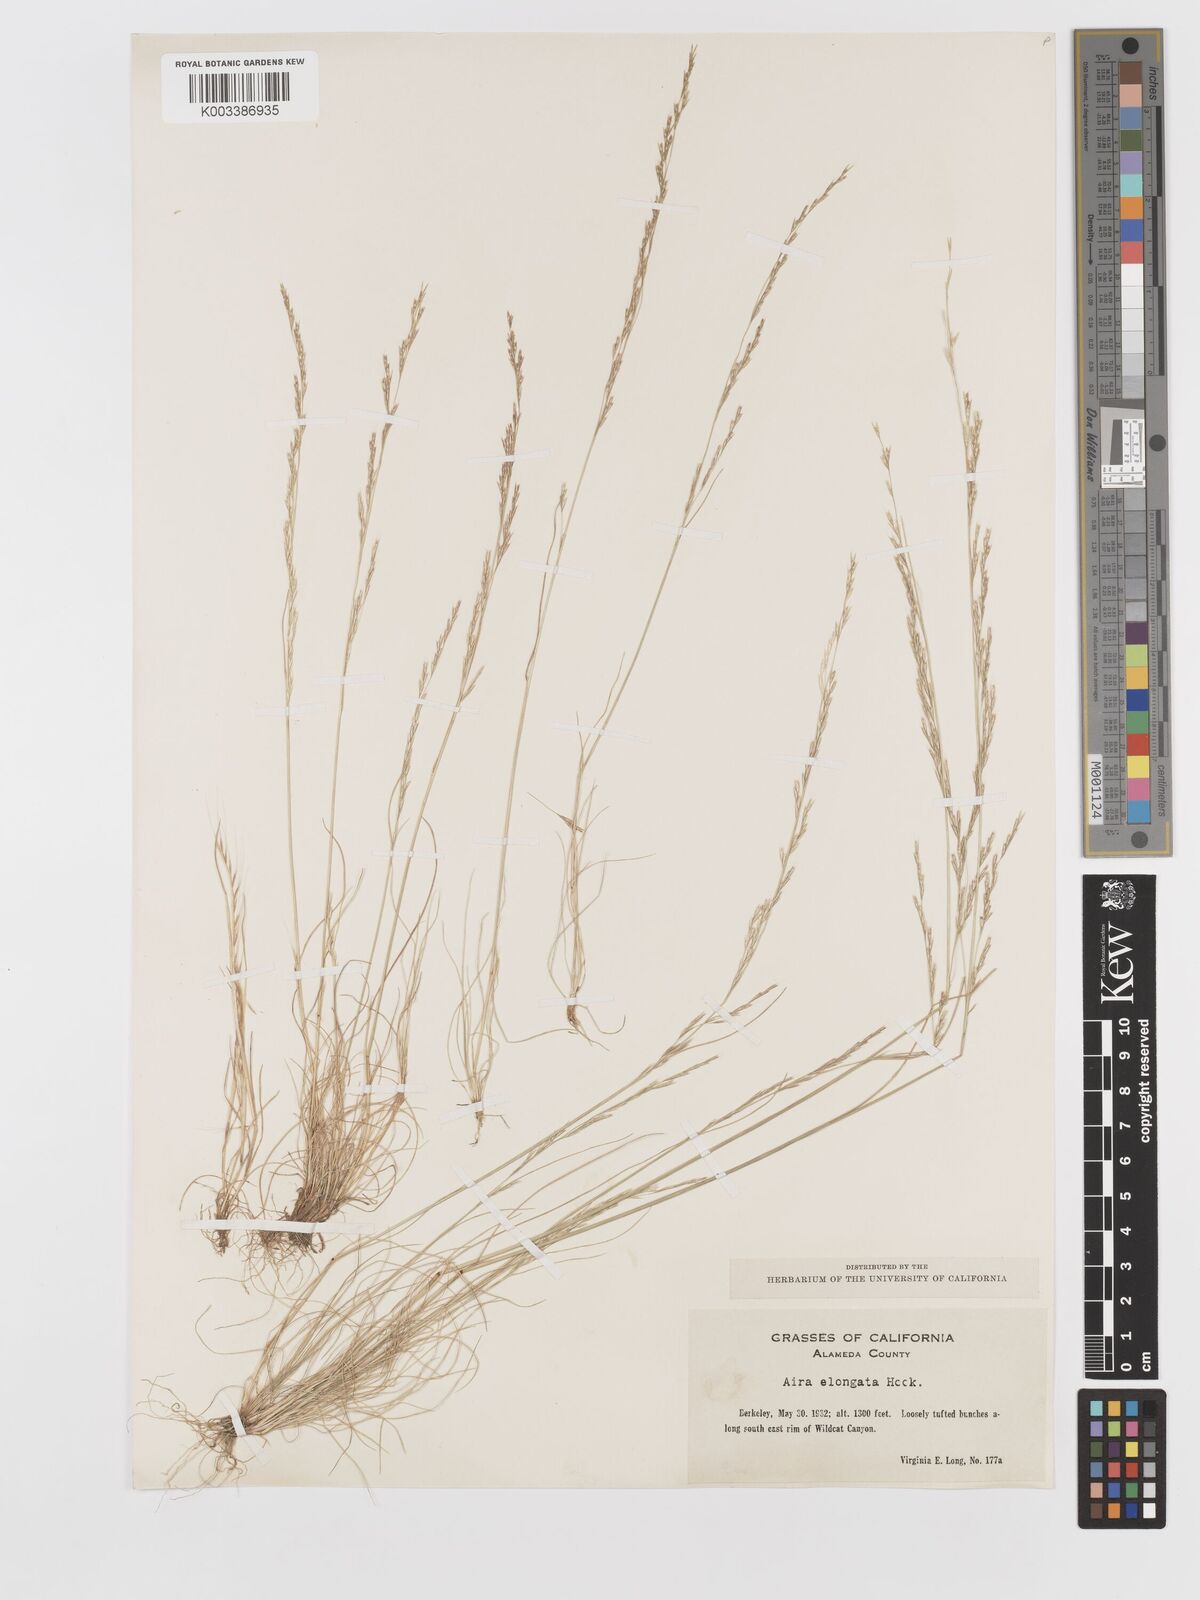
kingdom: Plantae
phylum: Tracheophyta
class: Liliopsida
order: Poales
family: Poaceae
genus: Deschampsia
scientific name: Deschampsia elongata
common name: Slender hairgrass
